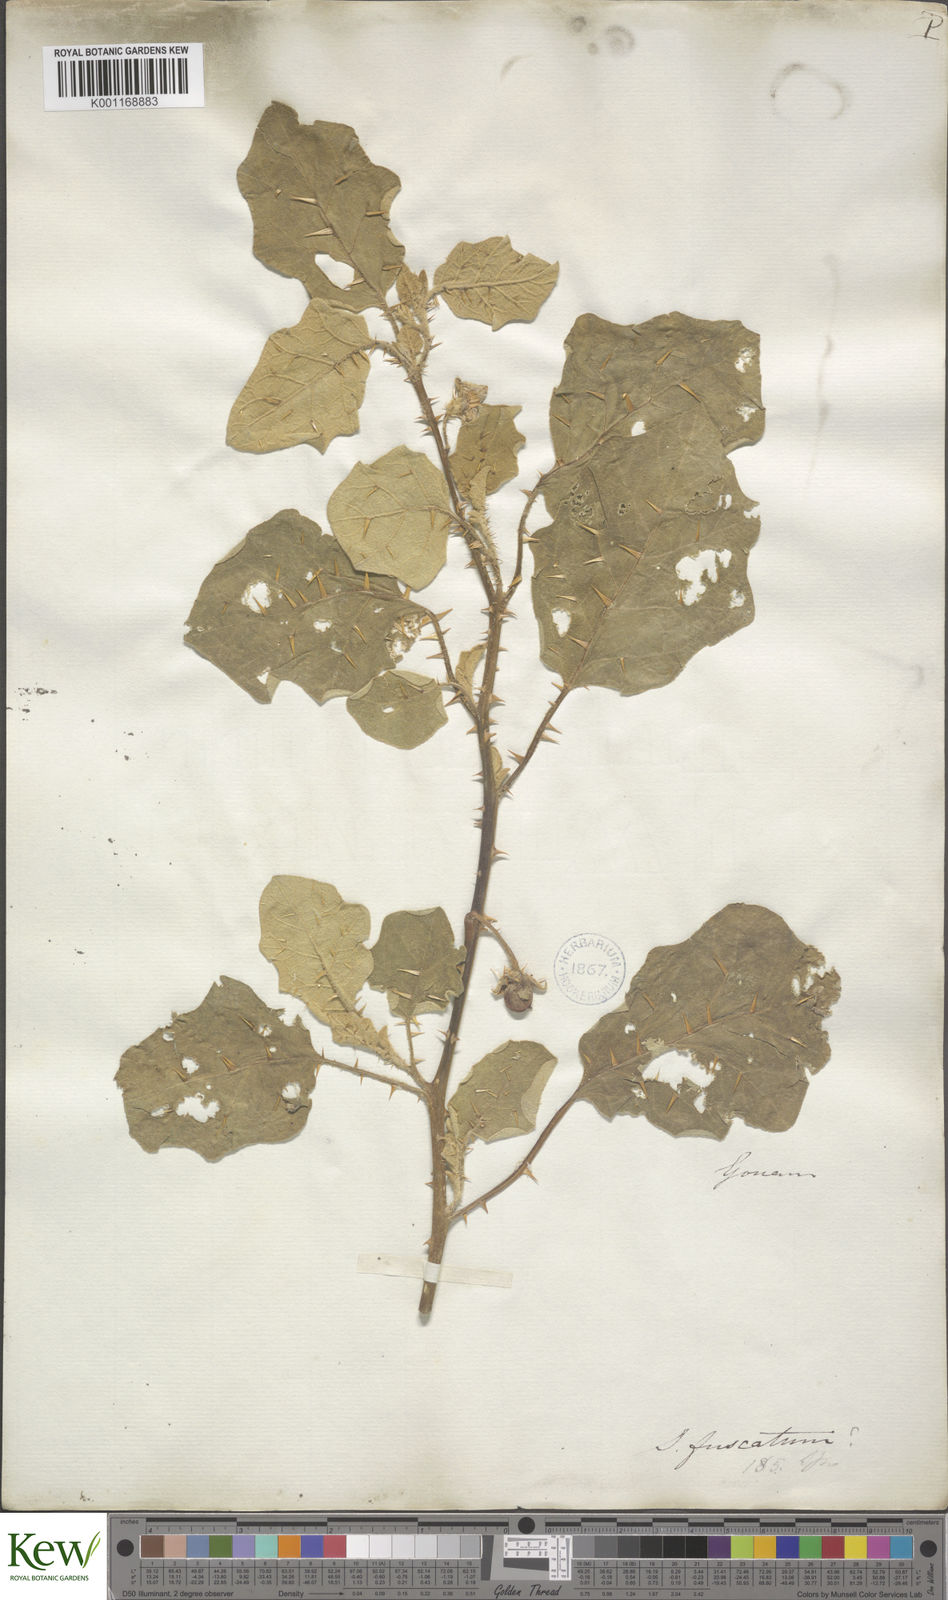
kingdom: Plantae
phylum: Tracheophyta
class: Magnoliopsida
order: Solanales
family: Solanaceae
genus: Solanum
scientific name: Solanum insanum
